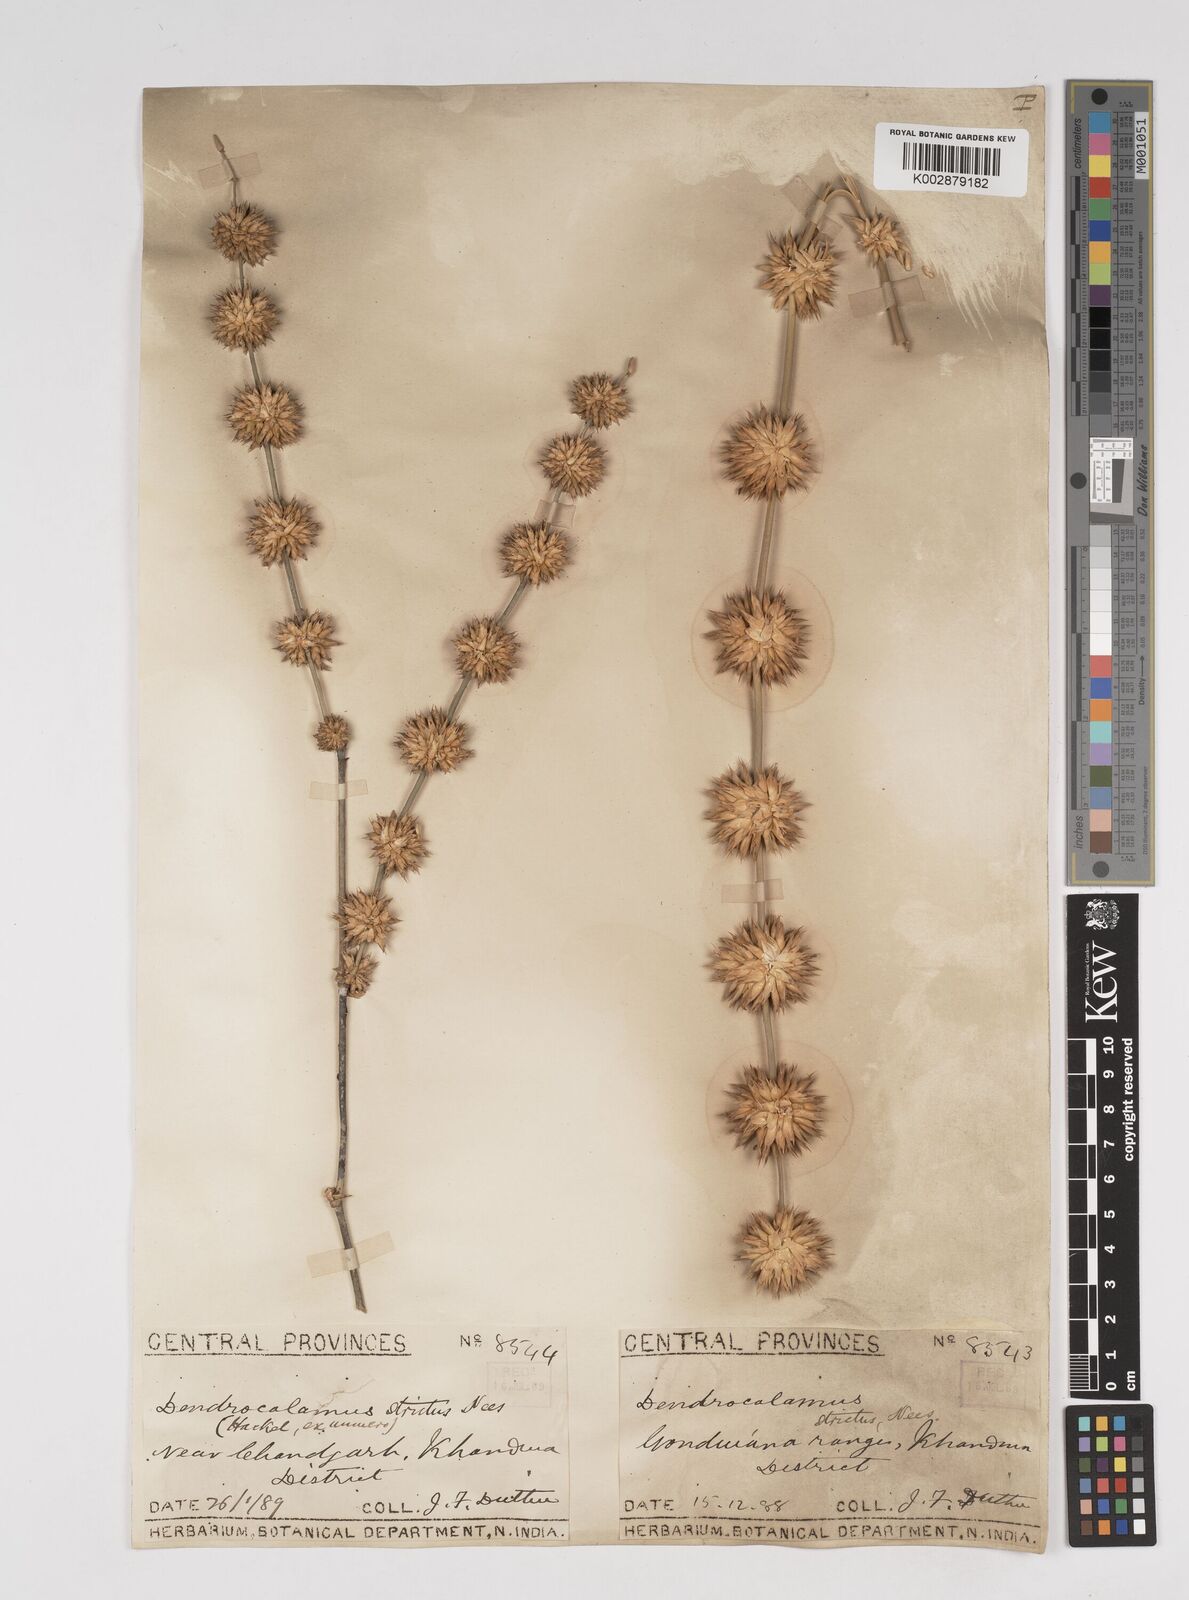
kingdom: Plantae
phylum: Tracheophyta
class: Liliopsida
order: Poales
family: Poaceae
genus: Dendrocalamus
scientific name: Dendrocalamus strictus
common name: Male bamboo
